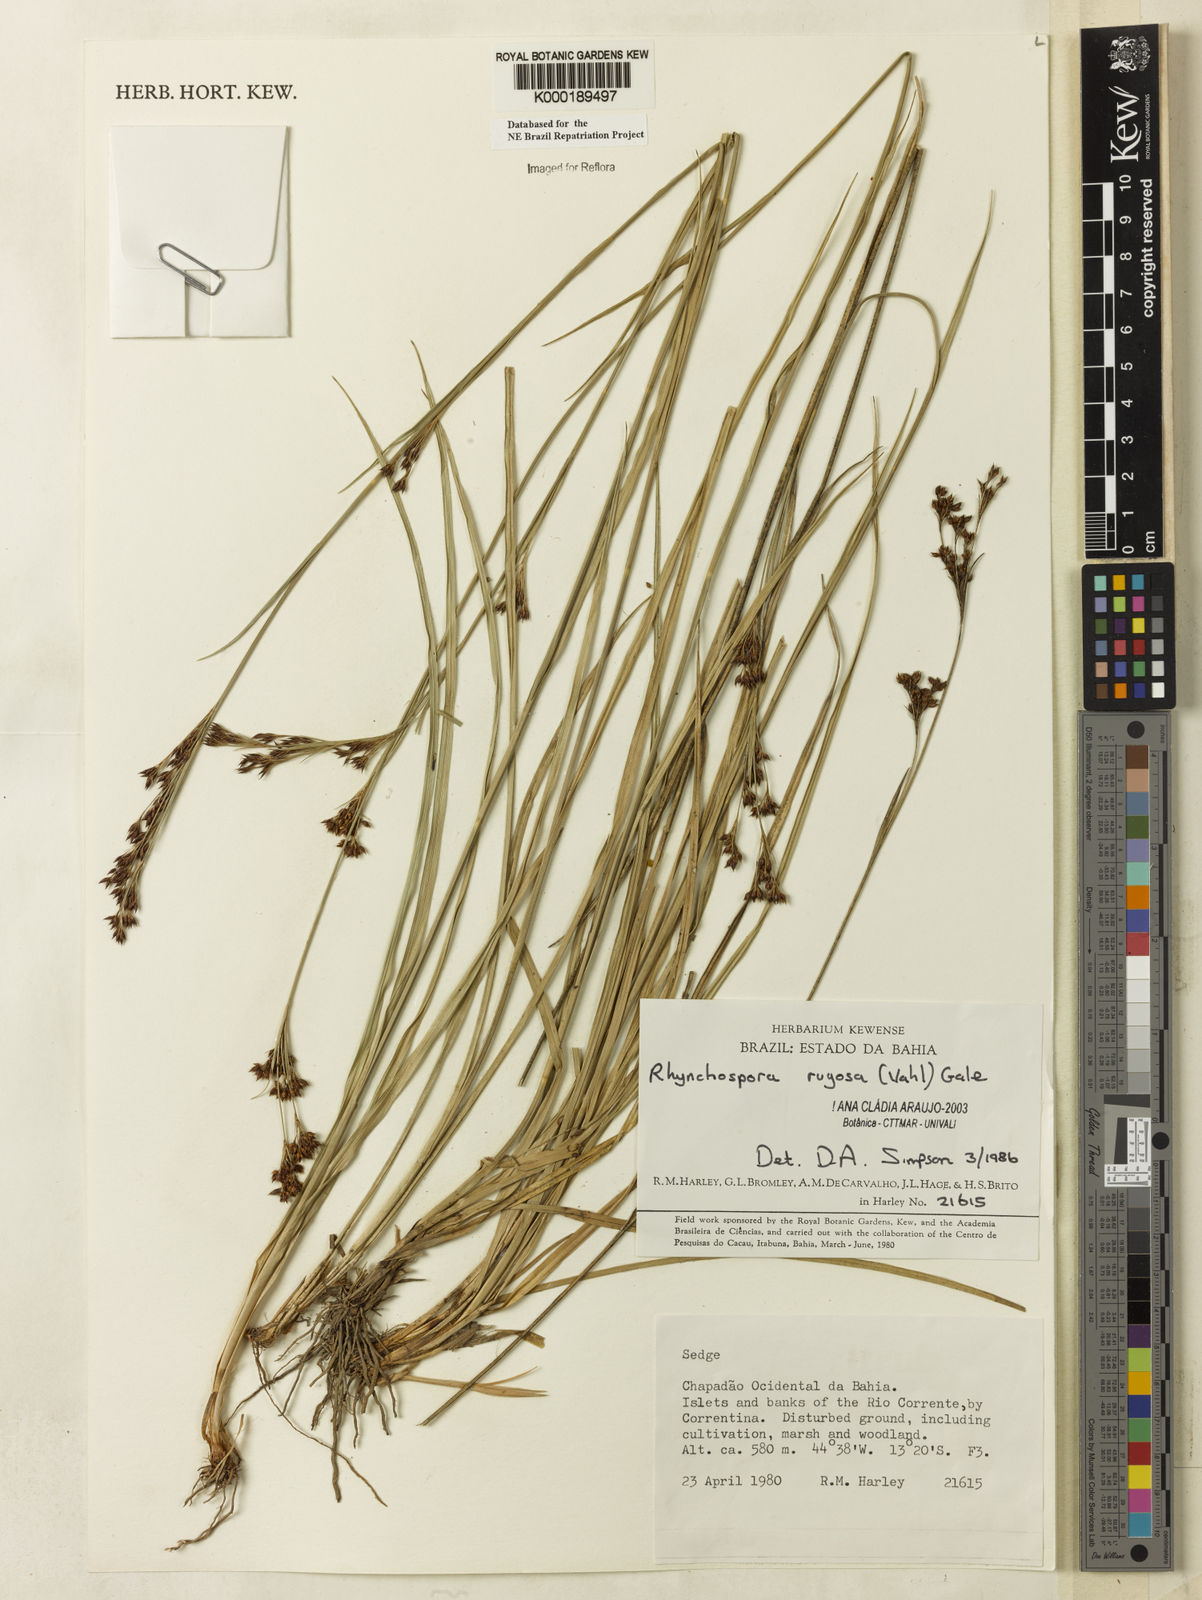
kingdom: Plantae
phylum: Tracheophyta
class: Liliopsida
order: Poales
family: Cyperaceae
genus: Rhynchospora
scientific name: Rhynchospora rugosa
